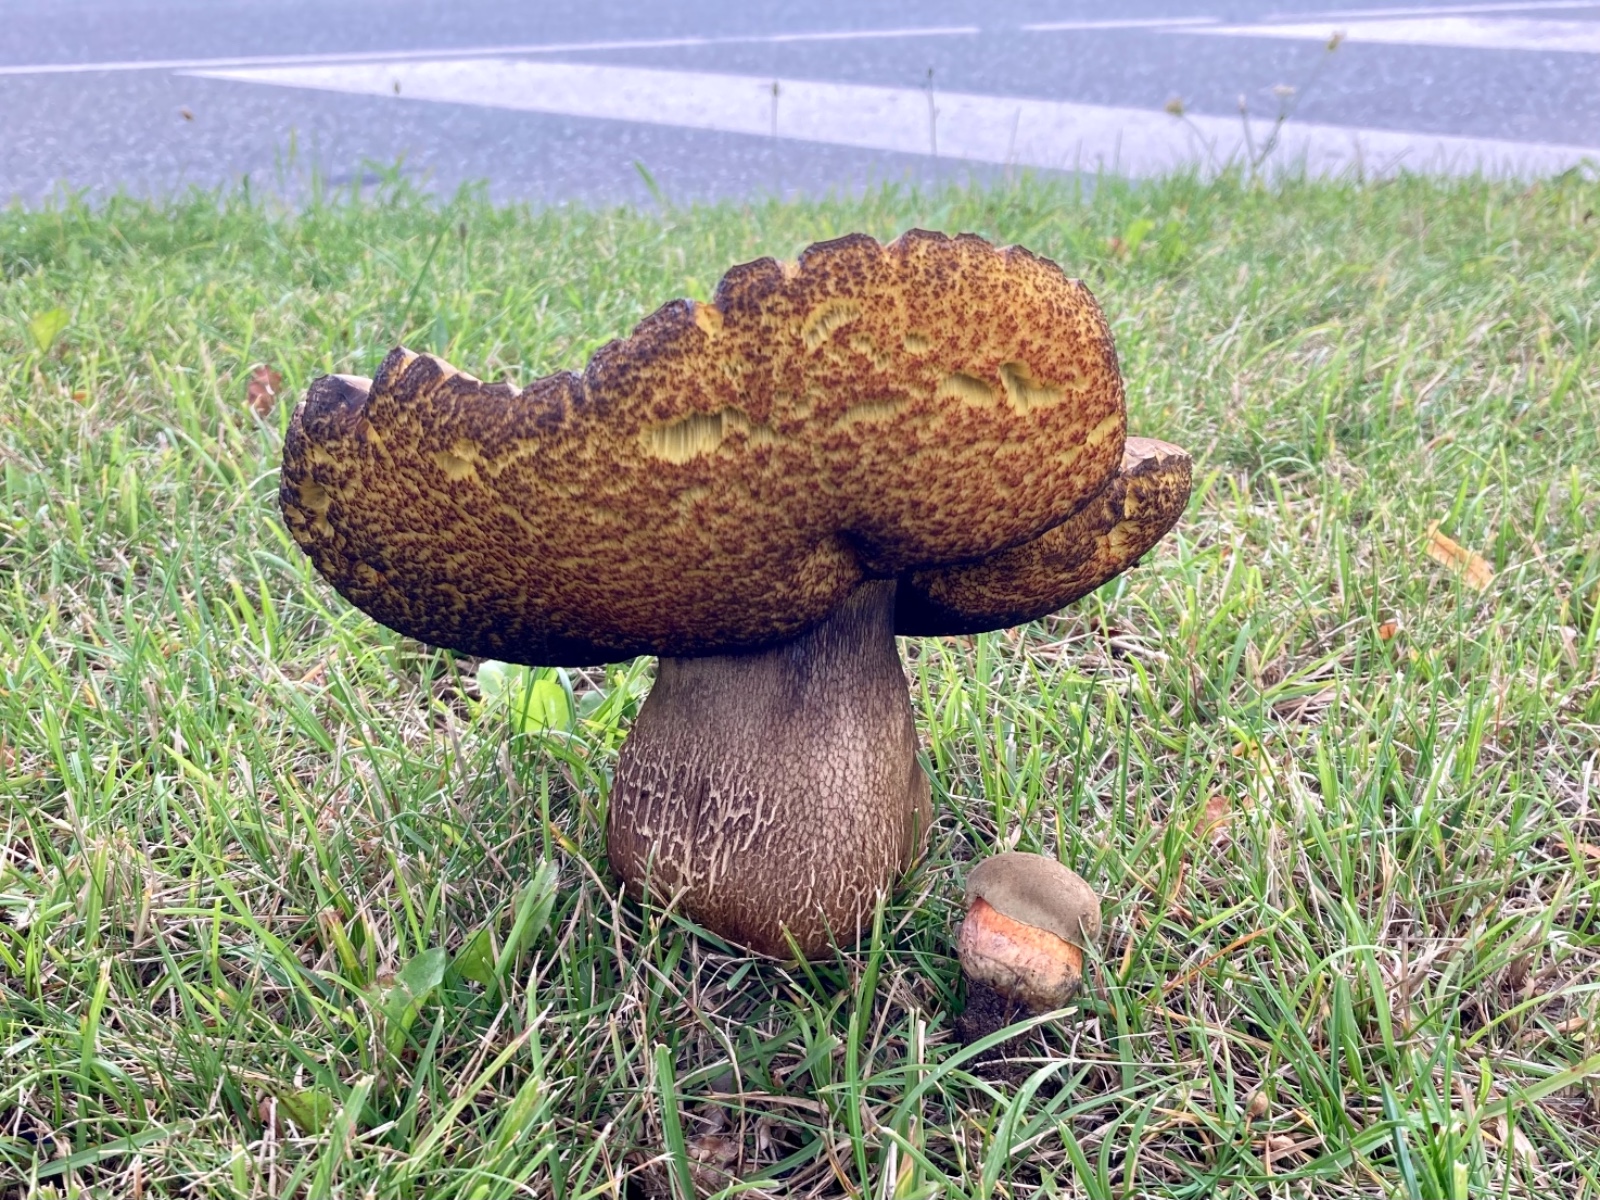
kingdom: Fungi
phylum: Basidiomycota
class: Agaricomycetes
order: Boletales
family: Boletaceae
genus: Suillellus
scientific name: Suillellus luridus
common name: netstokket indigorørhat
